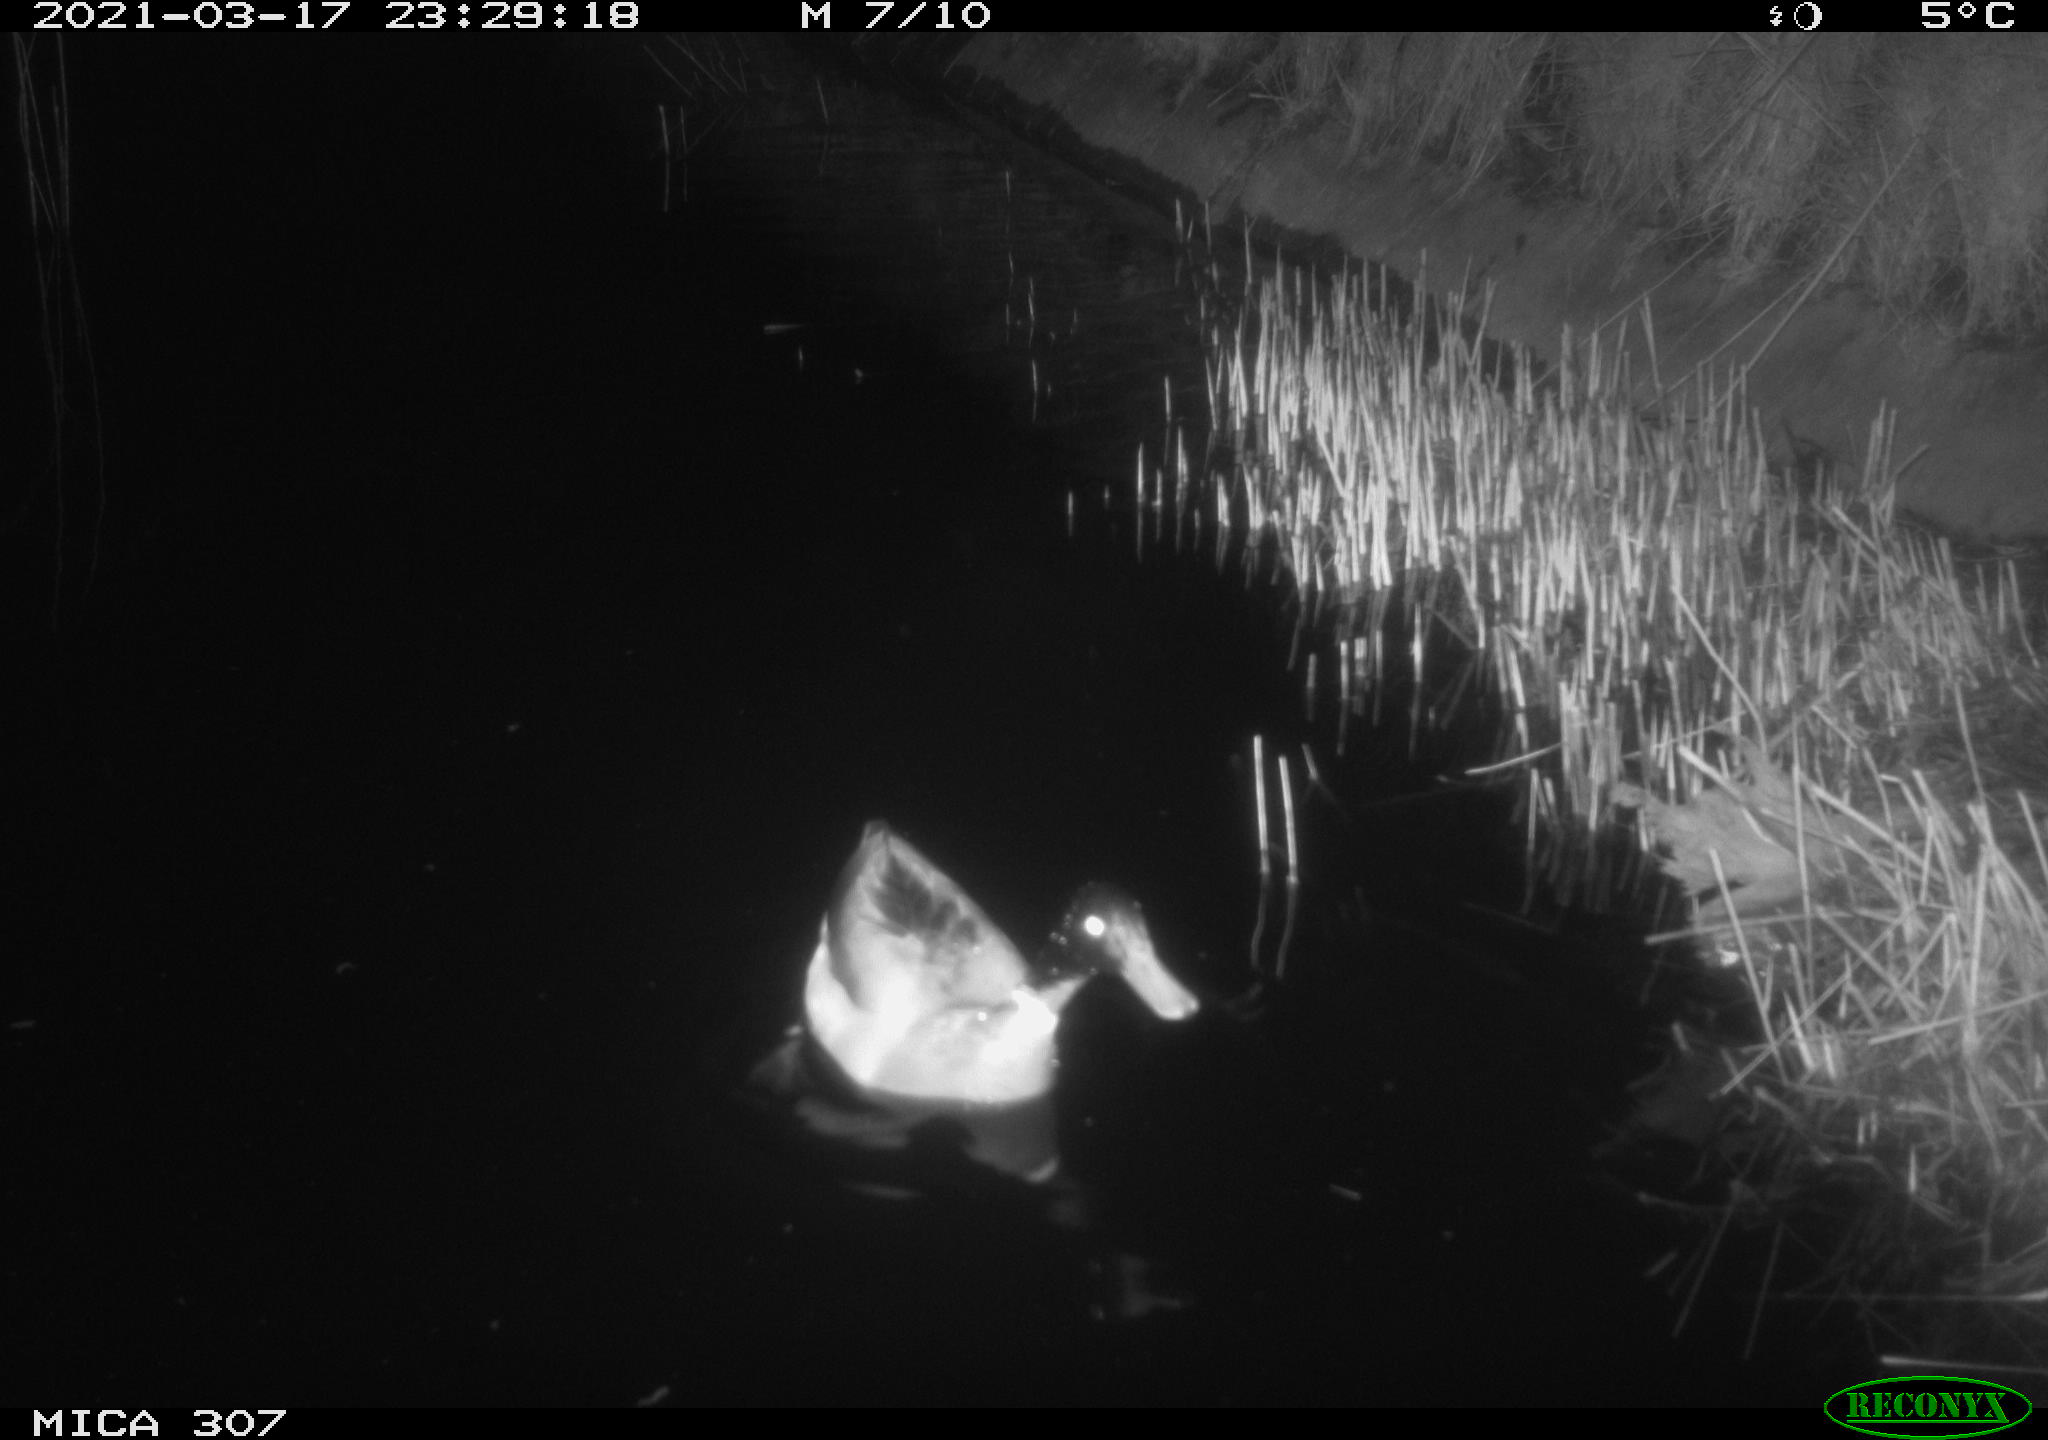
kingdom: Animalia
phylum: Chordata
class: Aves
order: Anseriformes
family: Anatidae
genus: Anas
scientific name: Anas platyrhynchos
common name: Mallard
